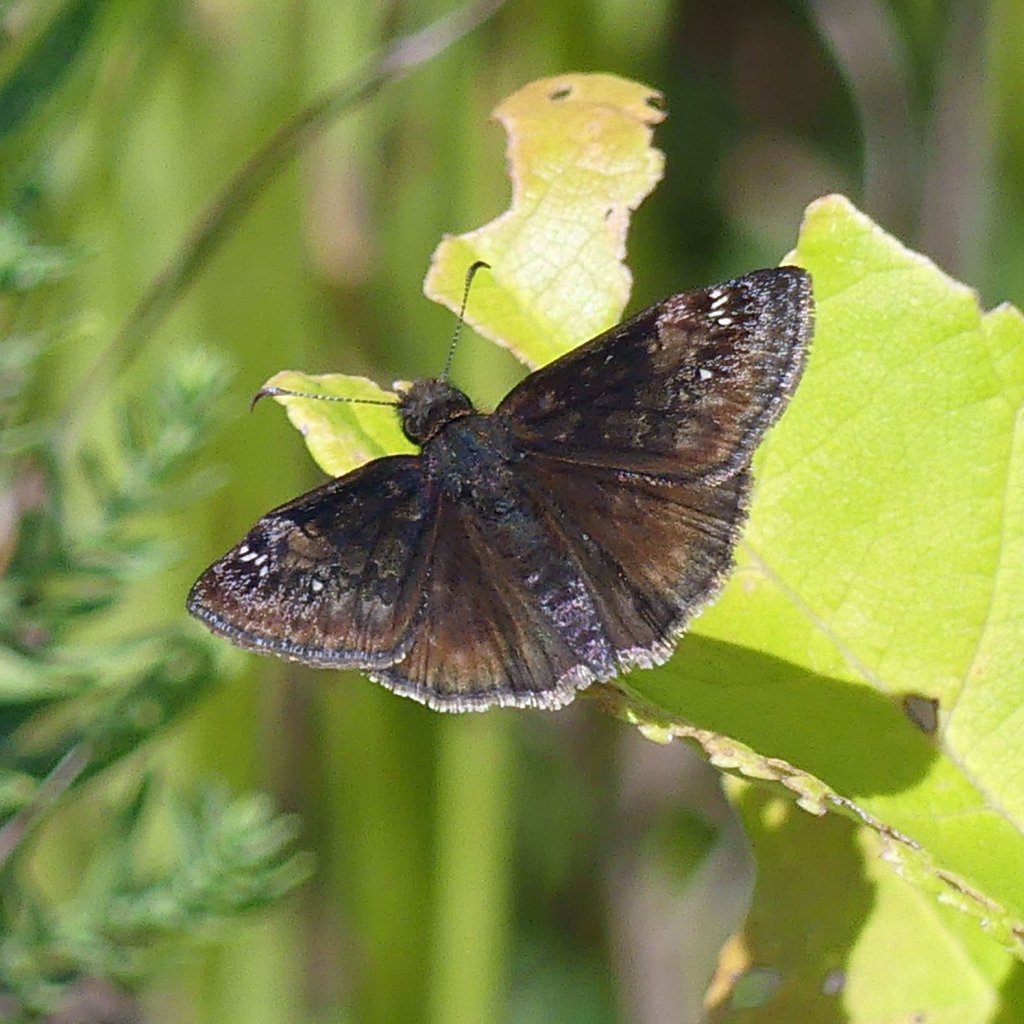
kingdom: Animalia
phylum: Arthropoda
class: Insecta
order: Lepidoptera
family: Hesperiidae
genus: Gesta
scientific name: Gesta
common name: Wild Indigo Duskywing
